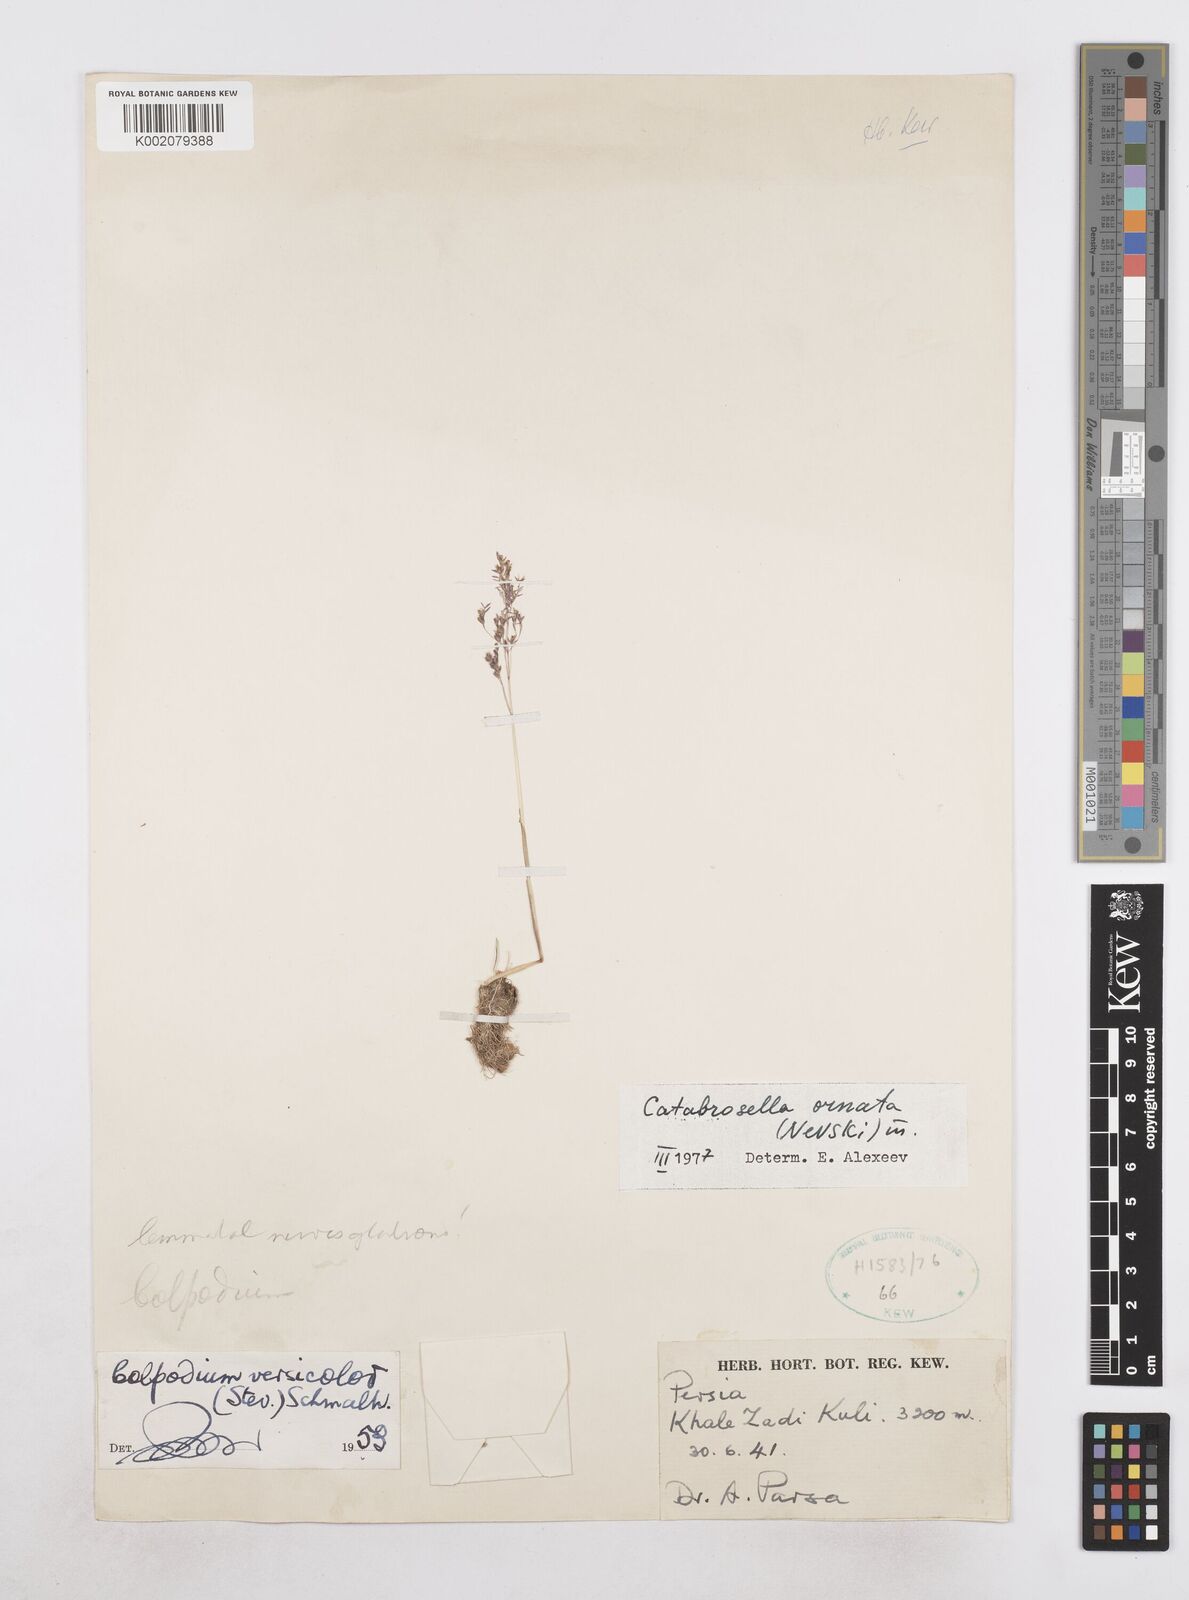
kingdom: Plantae
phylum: Tracheophyta
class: Liliopsida
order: Poales
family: Poaceae
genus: Catabrosella
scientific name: Catabrosella humilis
